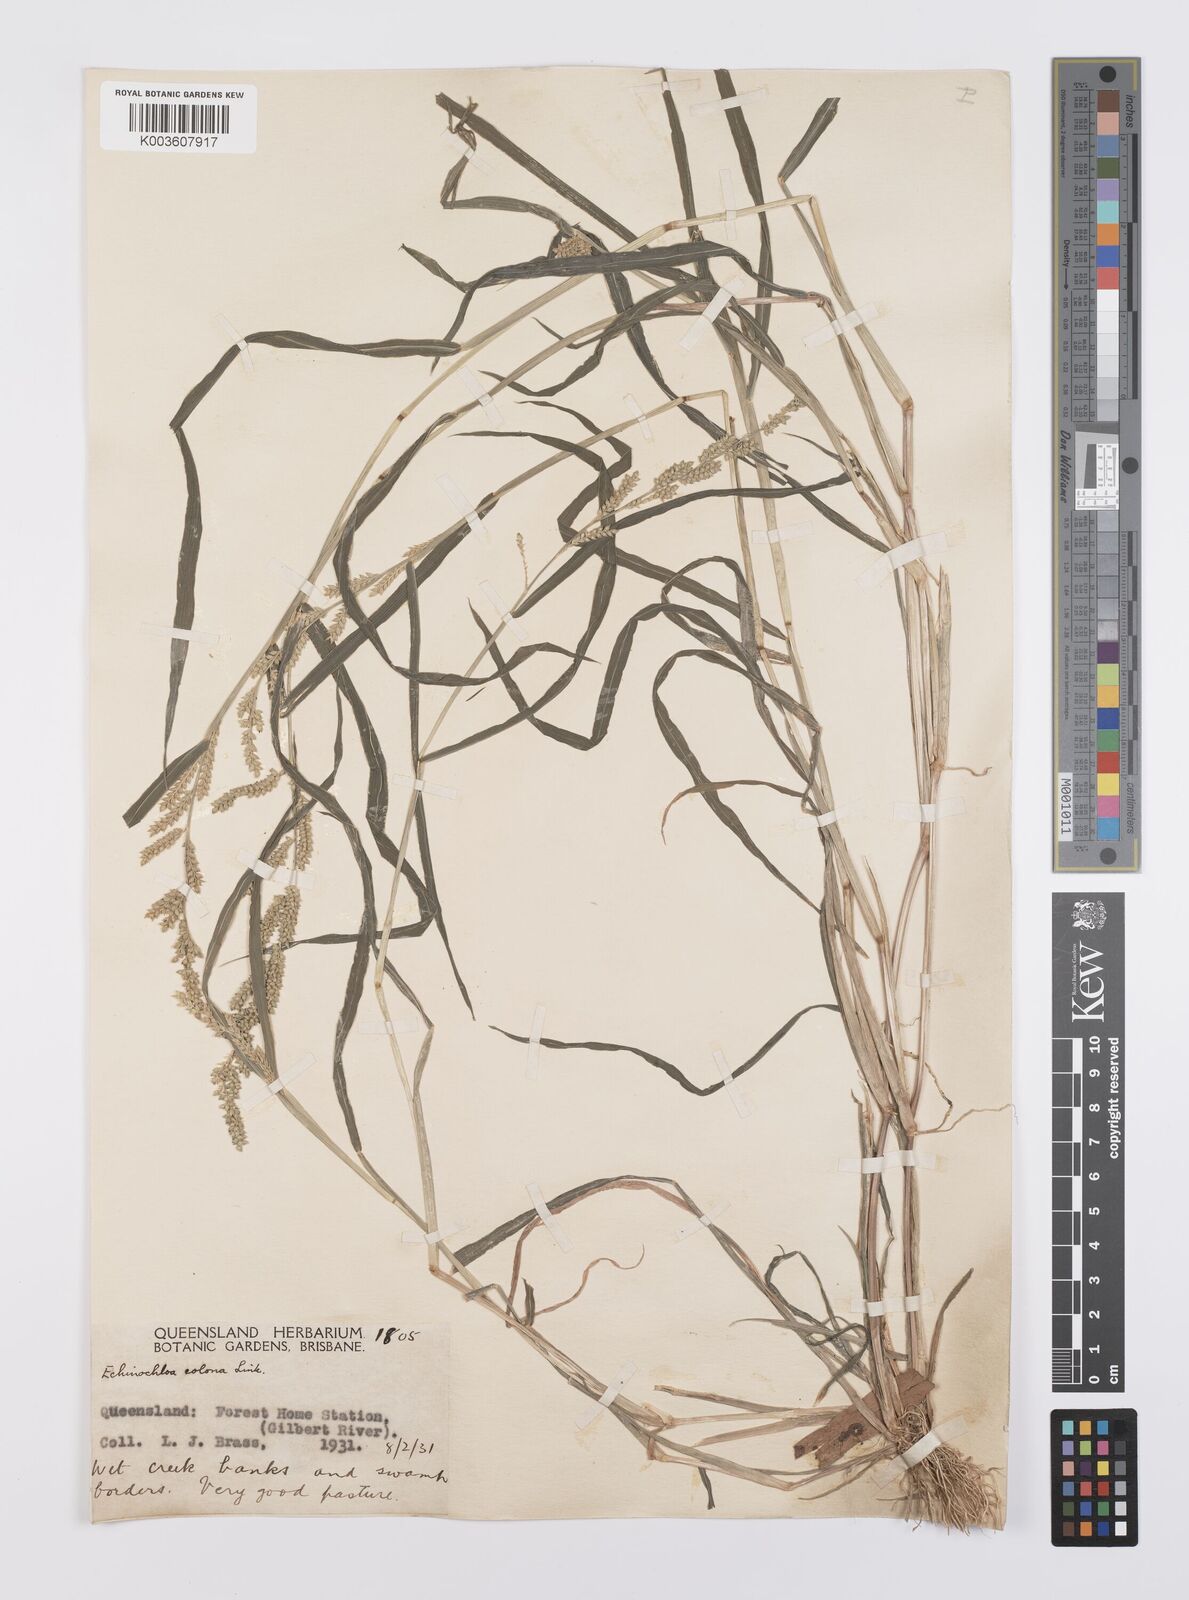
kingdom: Plantae
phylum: Tracheophyta
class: Liliopsida
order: Poales
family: Poaceae
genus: Echinochloa
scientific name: Echinochloa colonum
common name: Jungle rice
